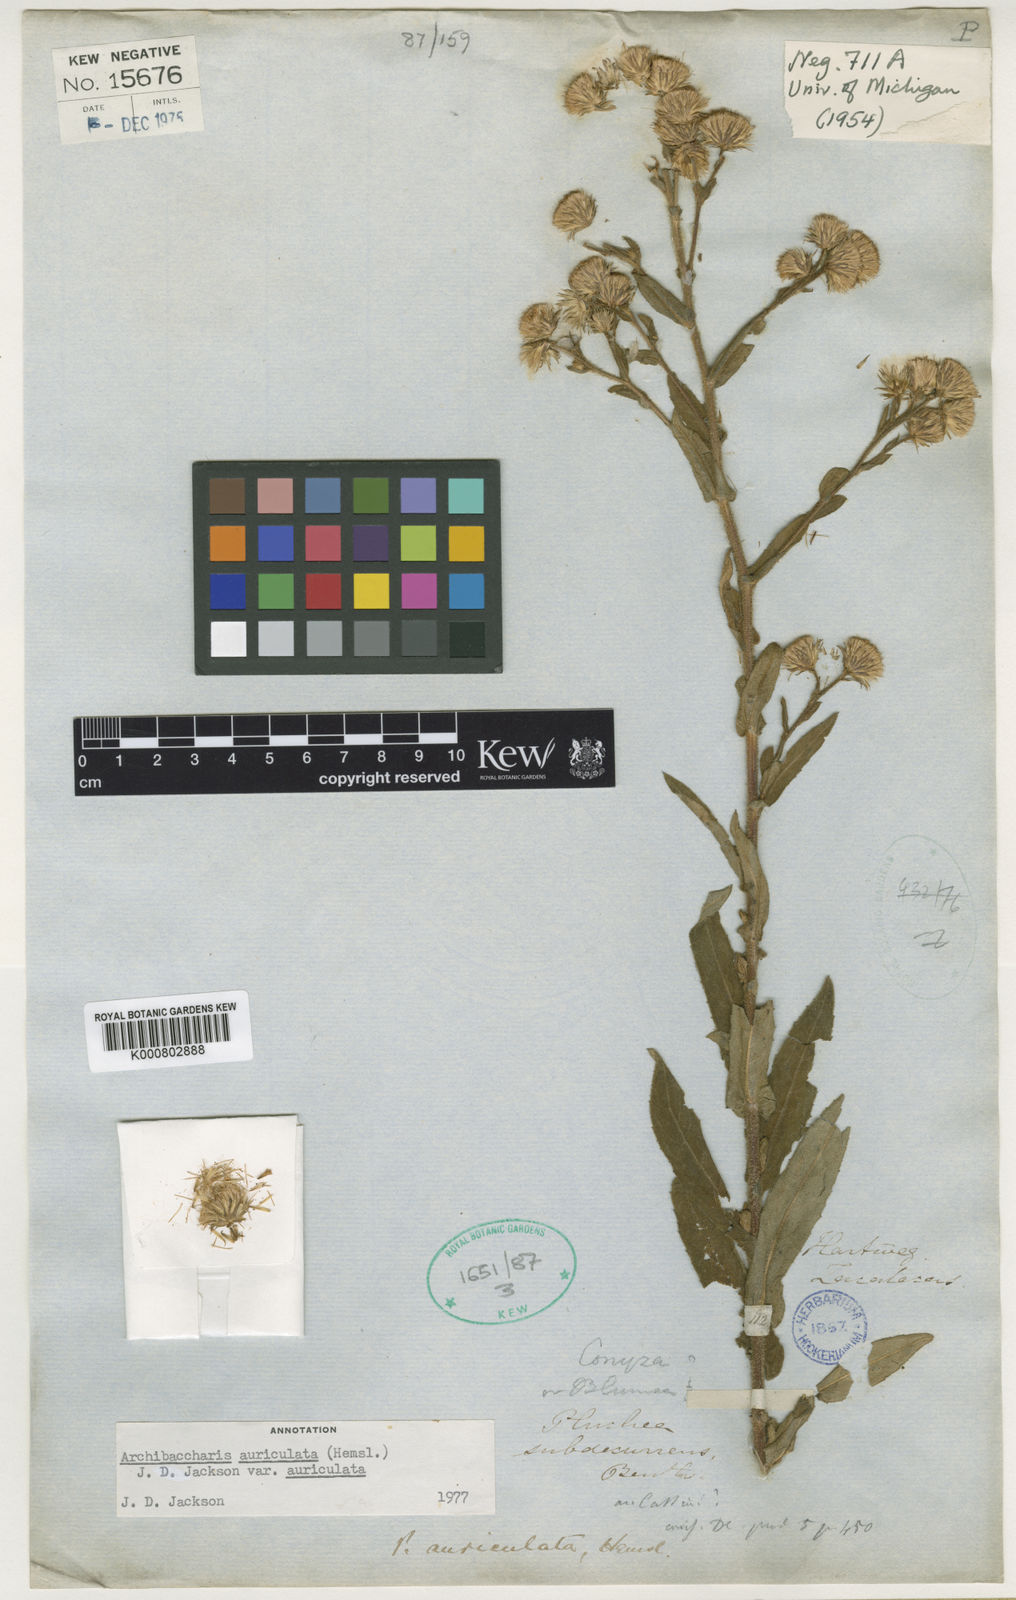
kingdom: Plantae
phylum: Tracheophyta
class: Magnoliopsida
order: Asterales
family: Asteraceae
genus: Archibaccharis
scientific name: Archibaccharis auriculata
